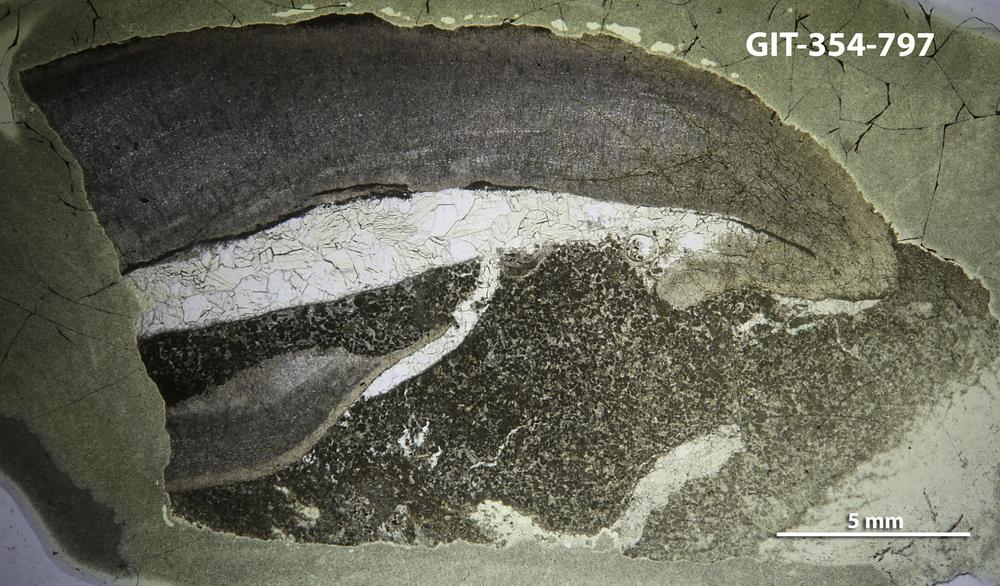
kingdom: Animalia
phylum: Porifera
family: Densastromatidae
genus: Densastroma
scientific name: Densastroma
